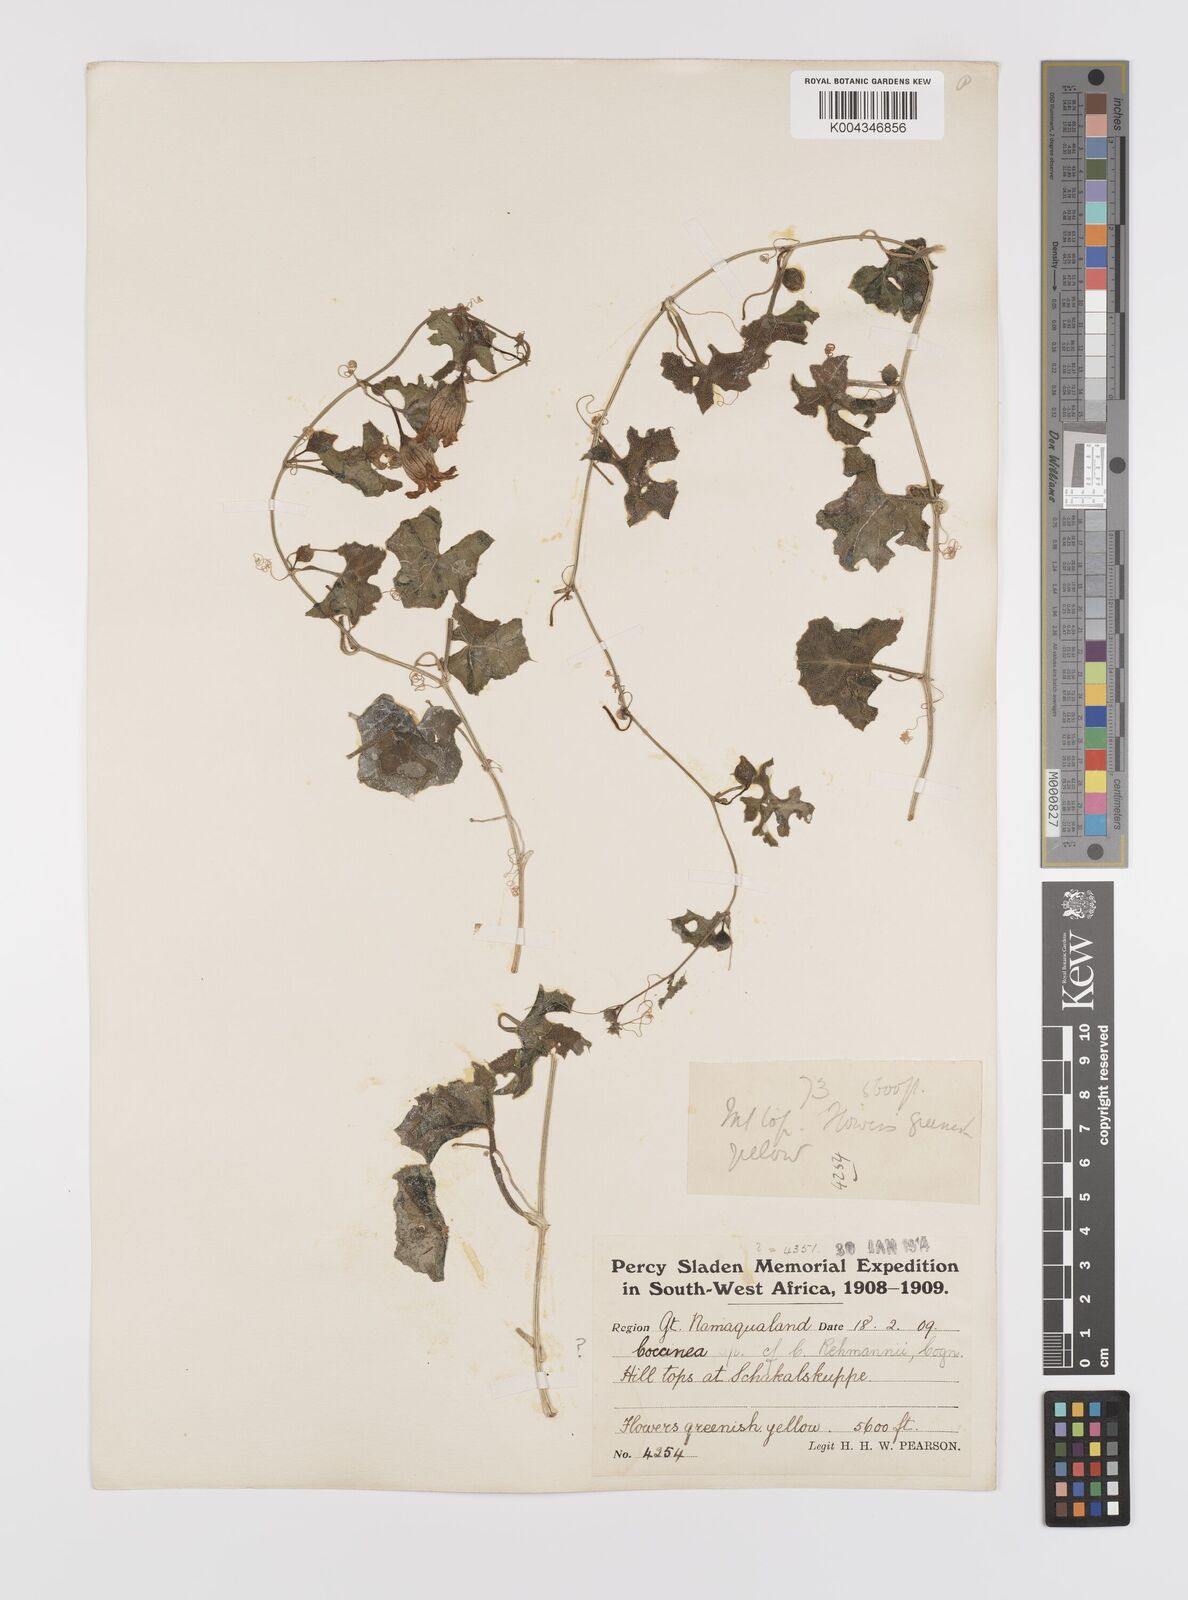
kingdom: Plantae
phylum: Tracheophyta
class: Magnoliopsida
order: Cucurbitales
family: Cucurbitaceae
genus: Coccinia
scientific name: Coccinia rehmannii
